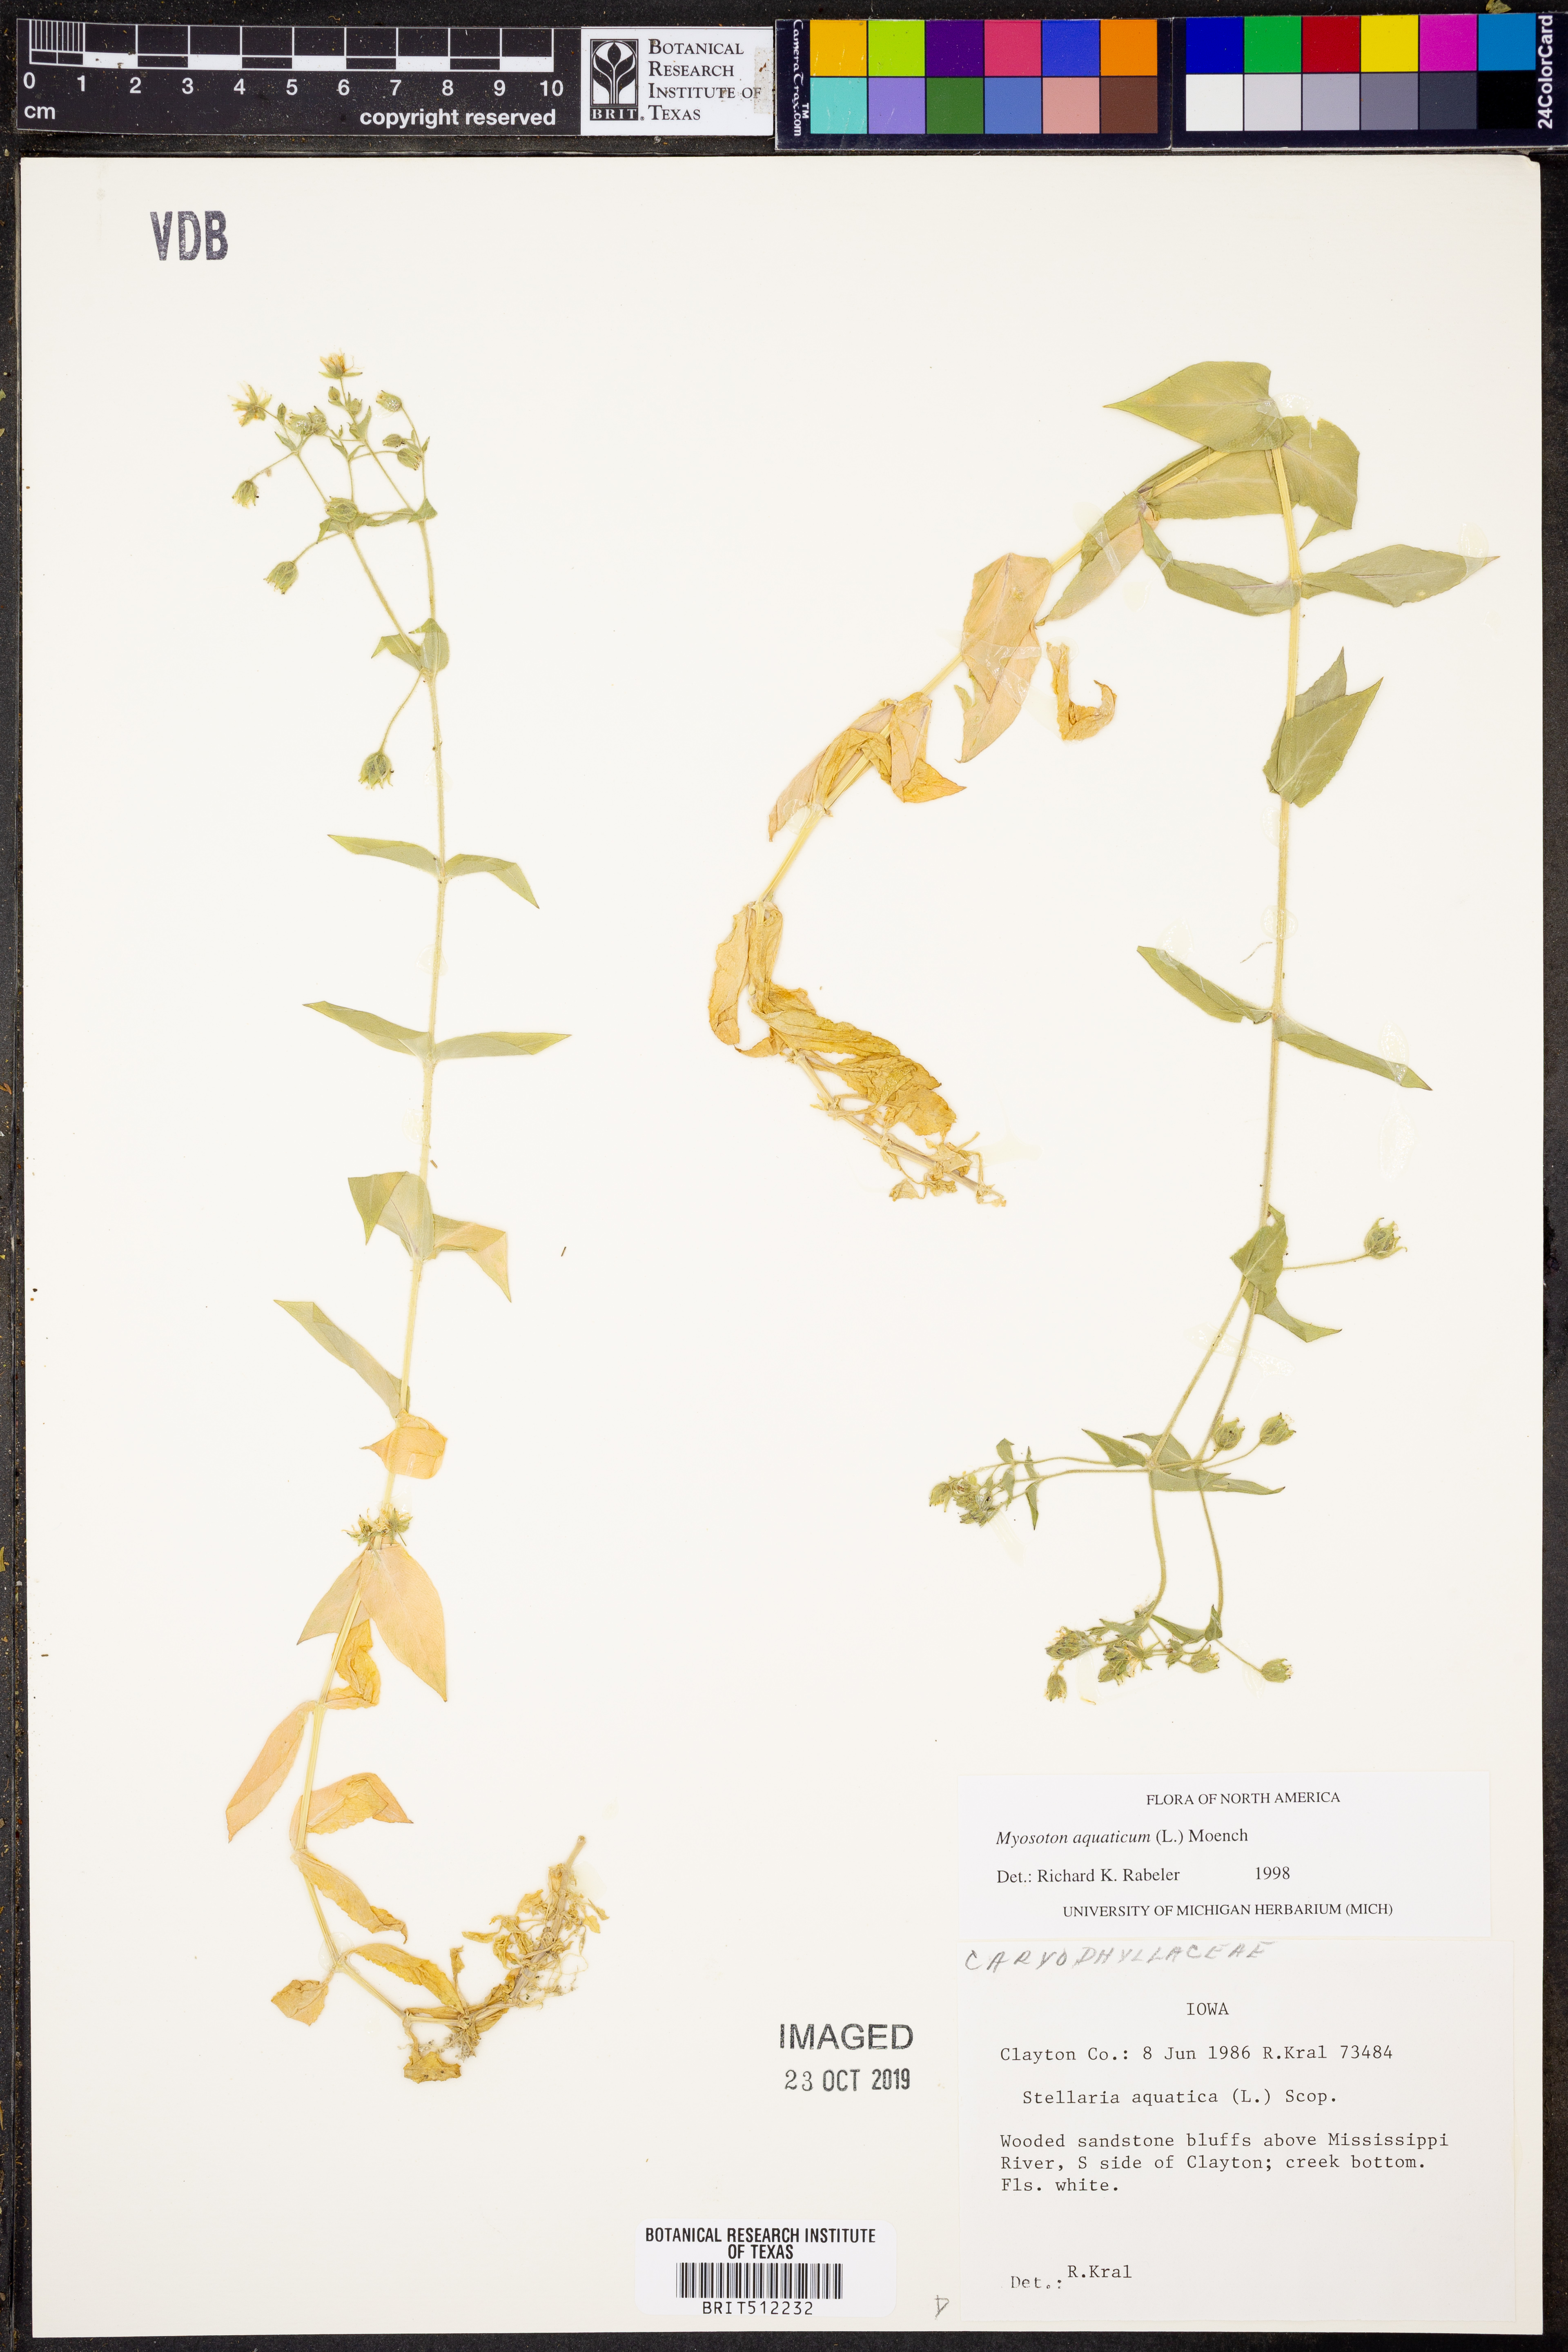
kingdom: Plantae
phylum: Tracheophyta
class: Magnoliopsida
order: Caryophyllales
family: Caryophyllaceae
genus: Stellaria
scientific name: Stellaria aquatica
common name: Water chickweed
